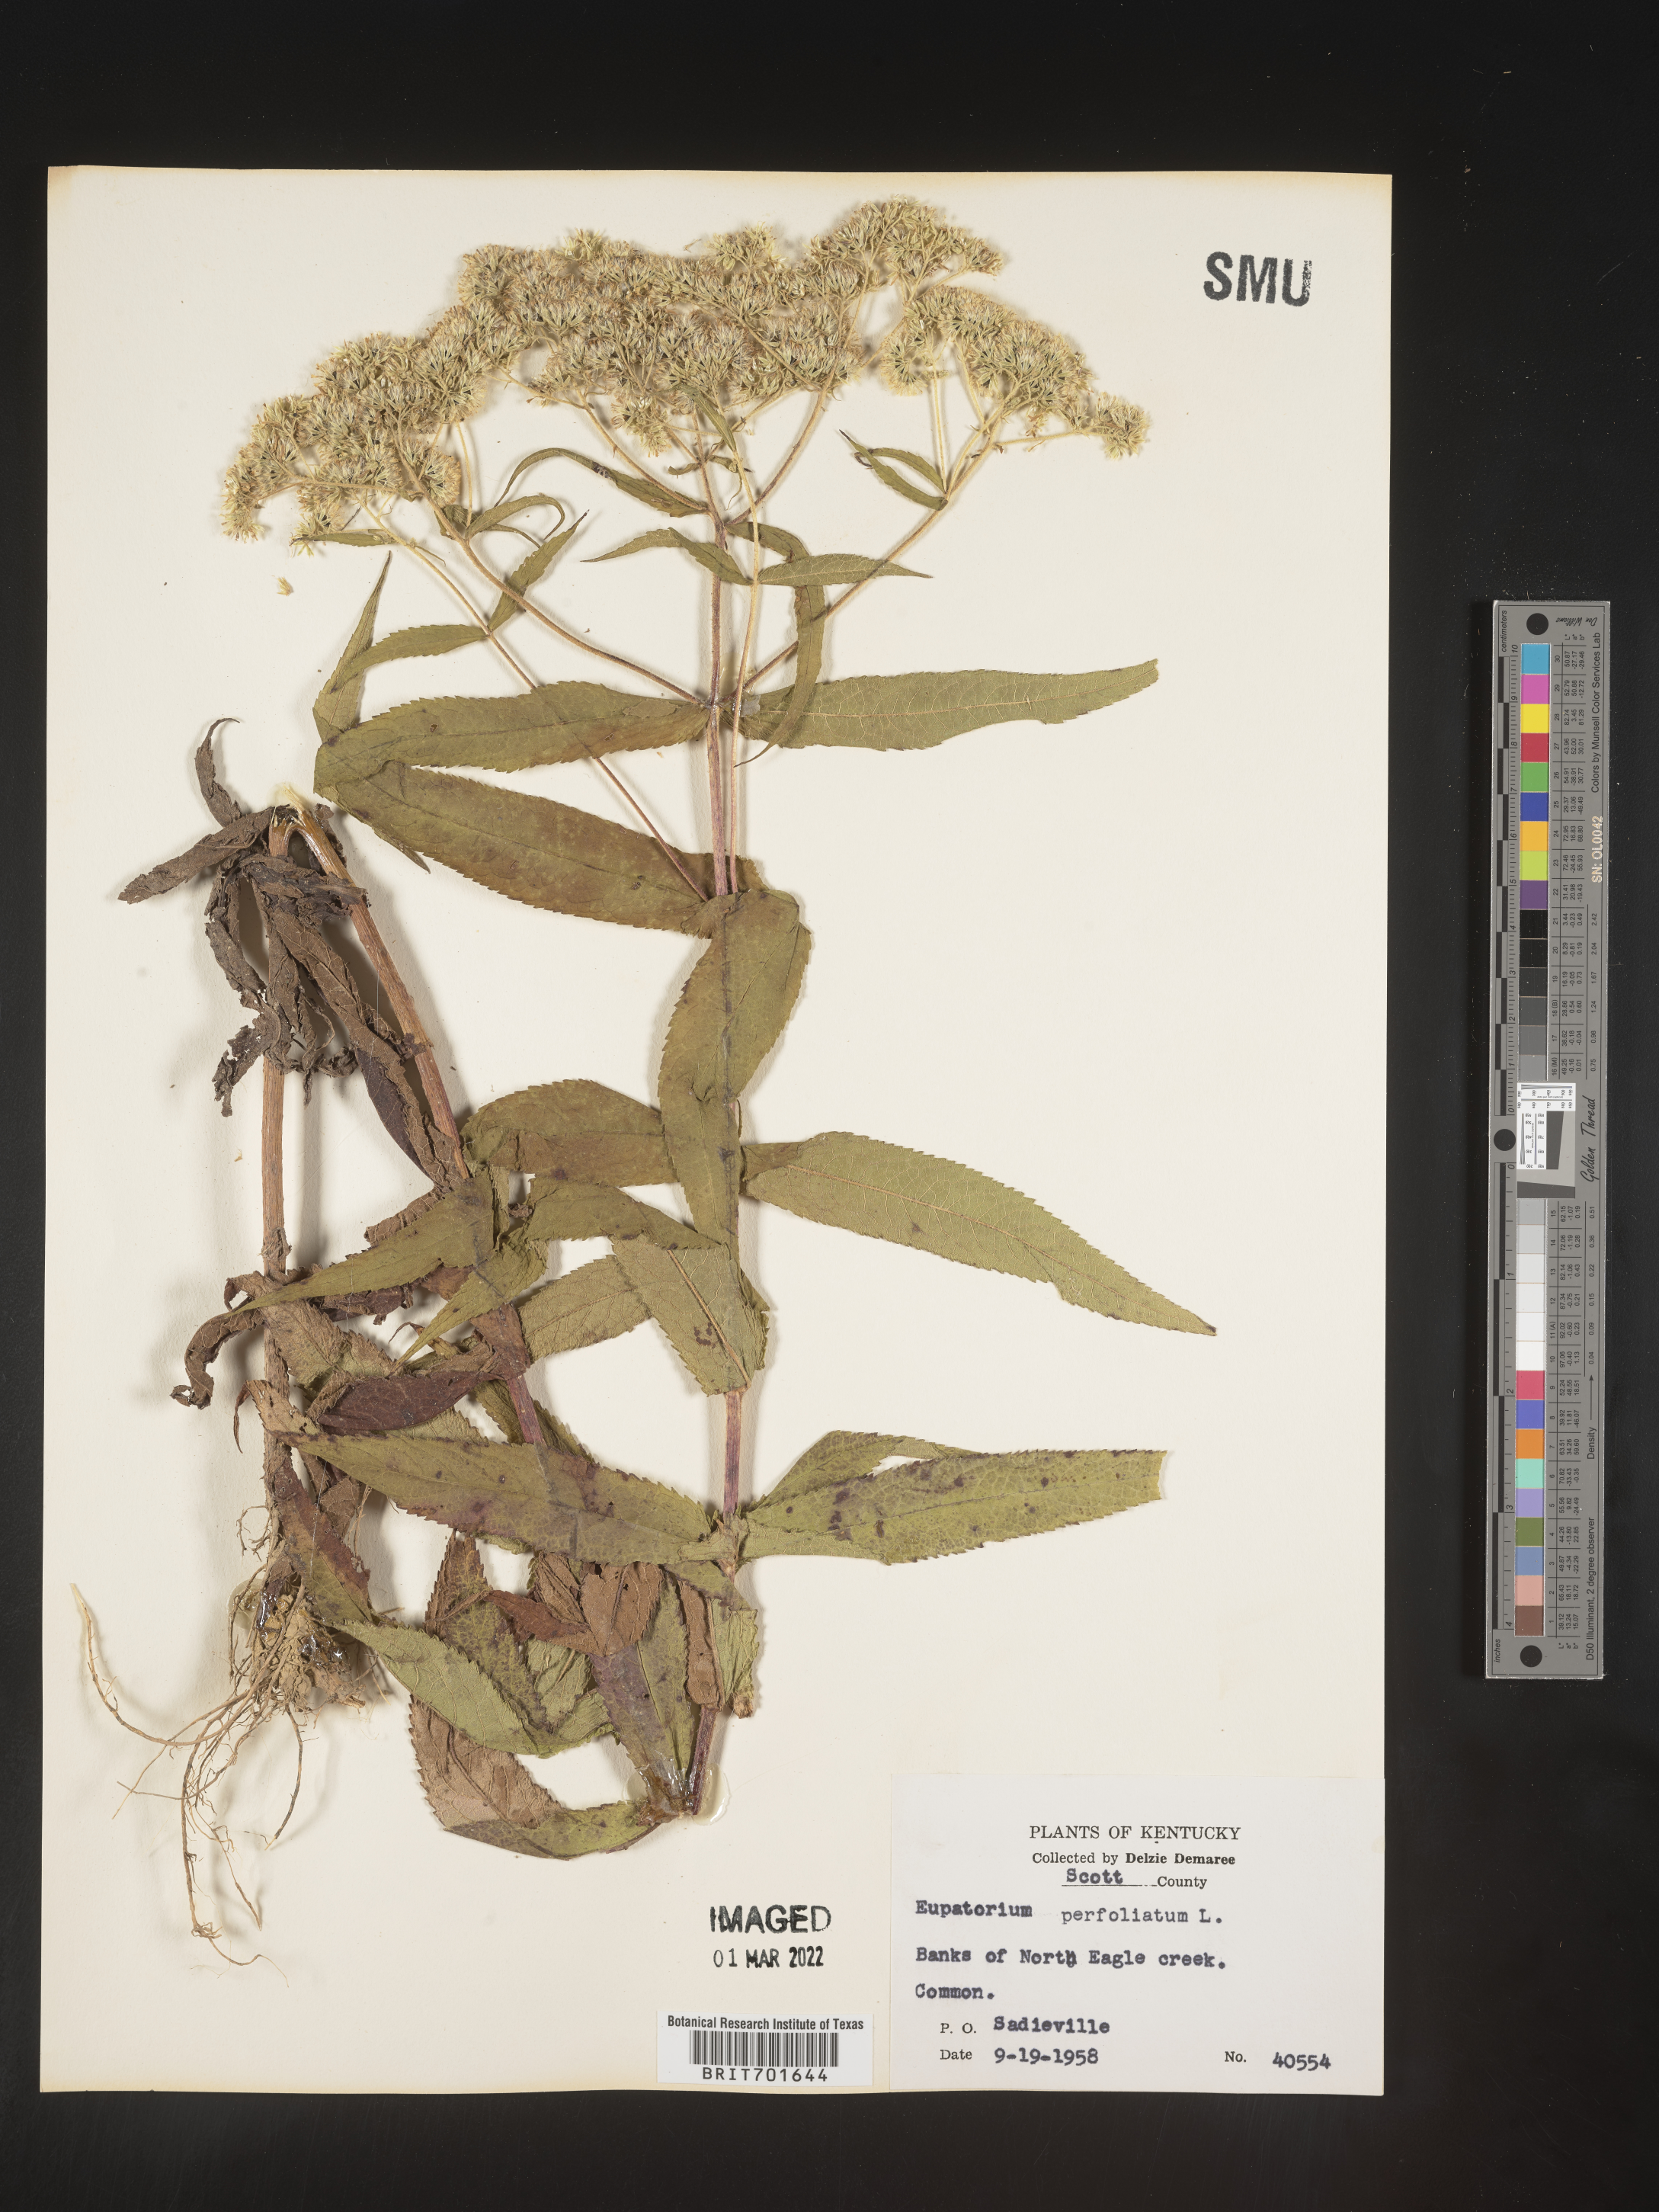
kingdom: Plantae
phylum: Tracheophyta
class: Magnoliopsida
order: Asterales
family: Asteraceae
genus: Eupatorium
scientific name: Eupatorium perfoliatum
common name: Boneset
